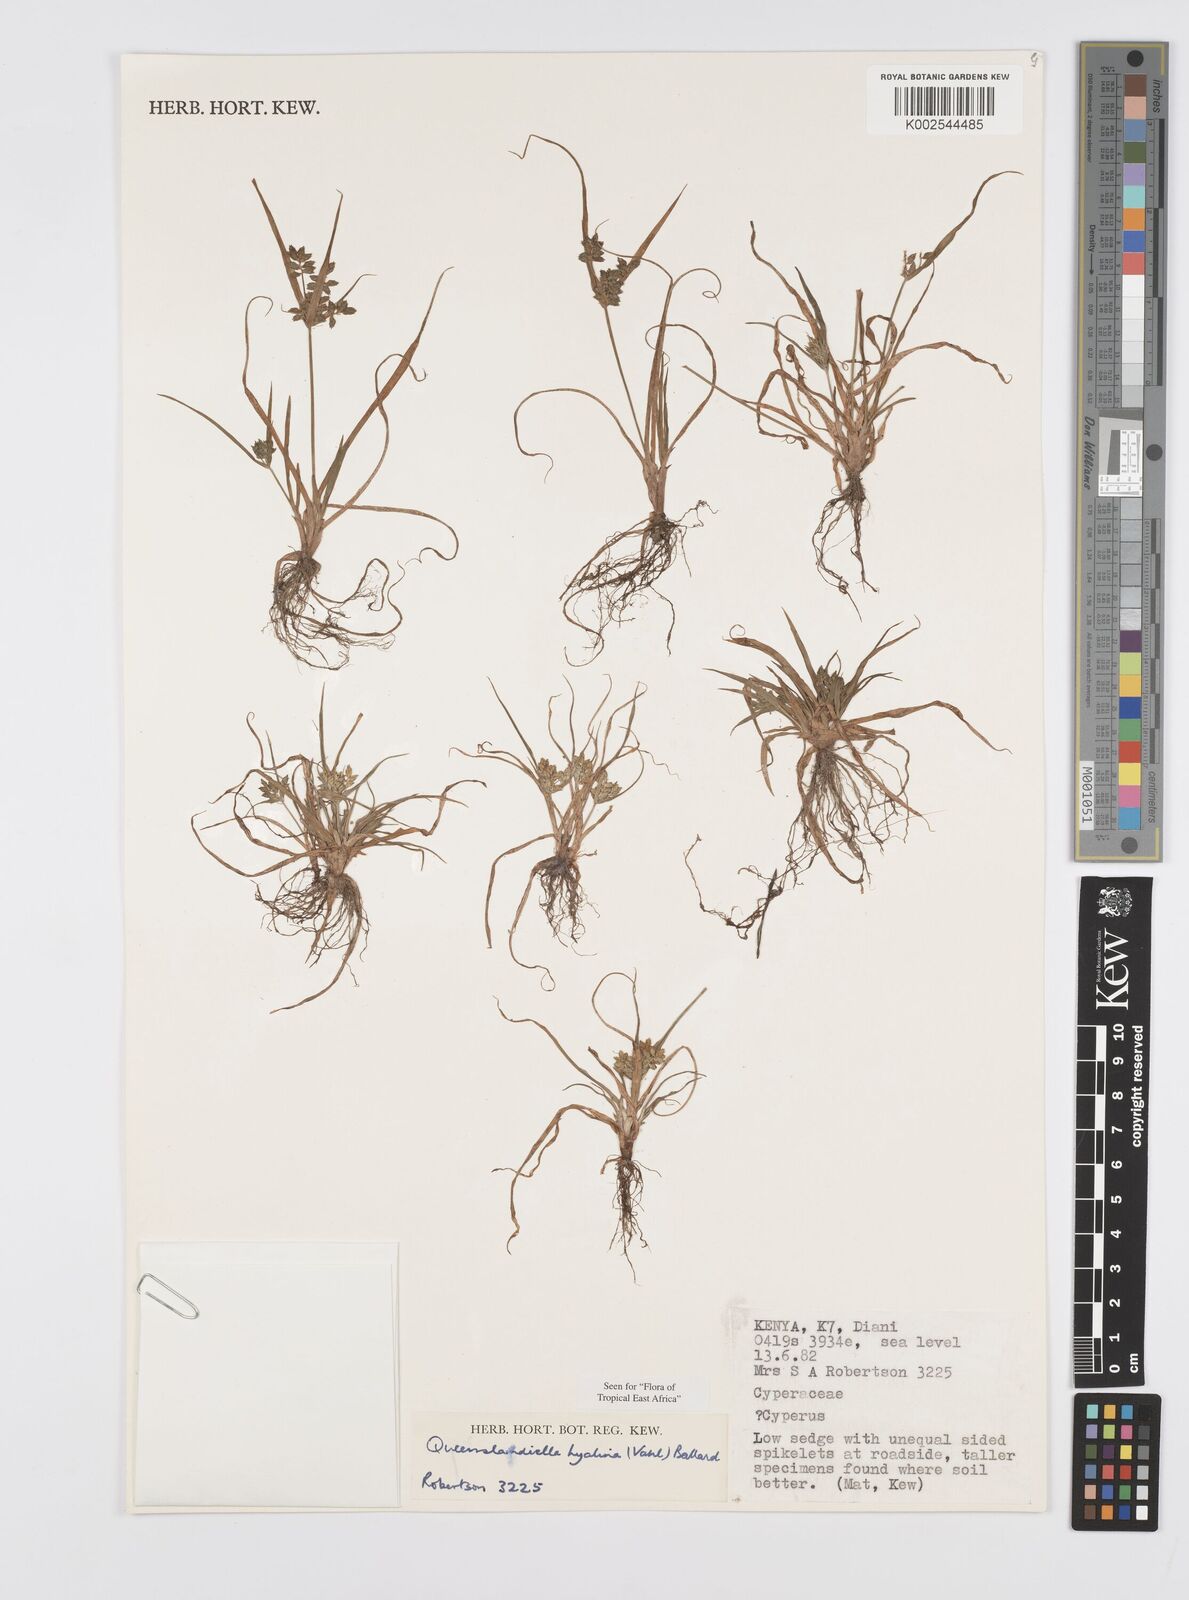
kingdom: Plantae
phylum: Tracheophyta
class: Liliopsida
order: Poales
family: Cyperaceae
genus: Cyperus
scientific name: Cyperus hyalinus
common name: Queensland sedge
